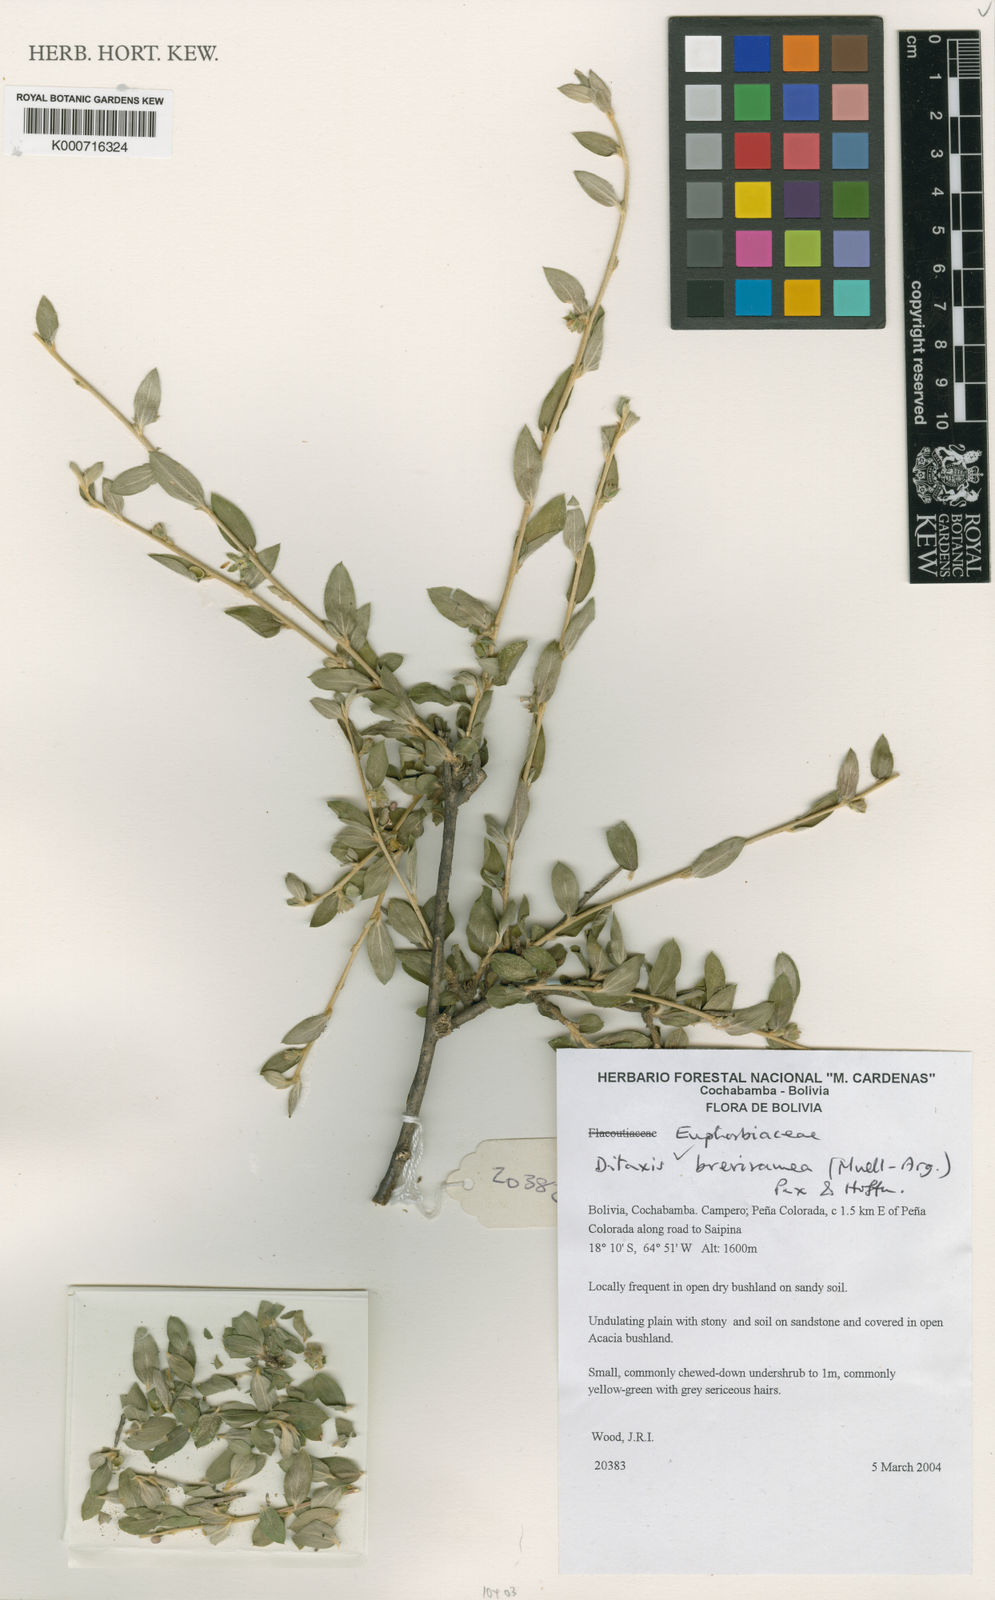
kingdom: Plantae
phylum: Tracheophyta
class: Magnoliopsida
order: Malpighiales
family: Euphorbiaceae
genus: Ditaxis
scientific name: Ditaxis
